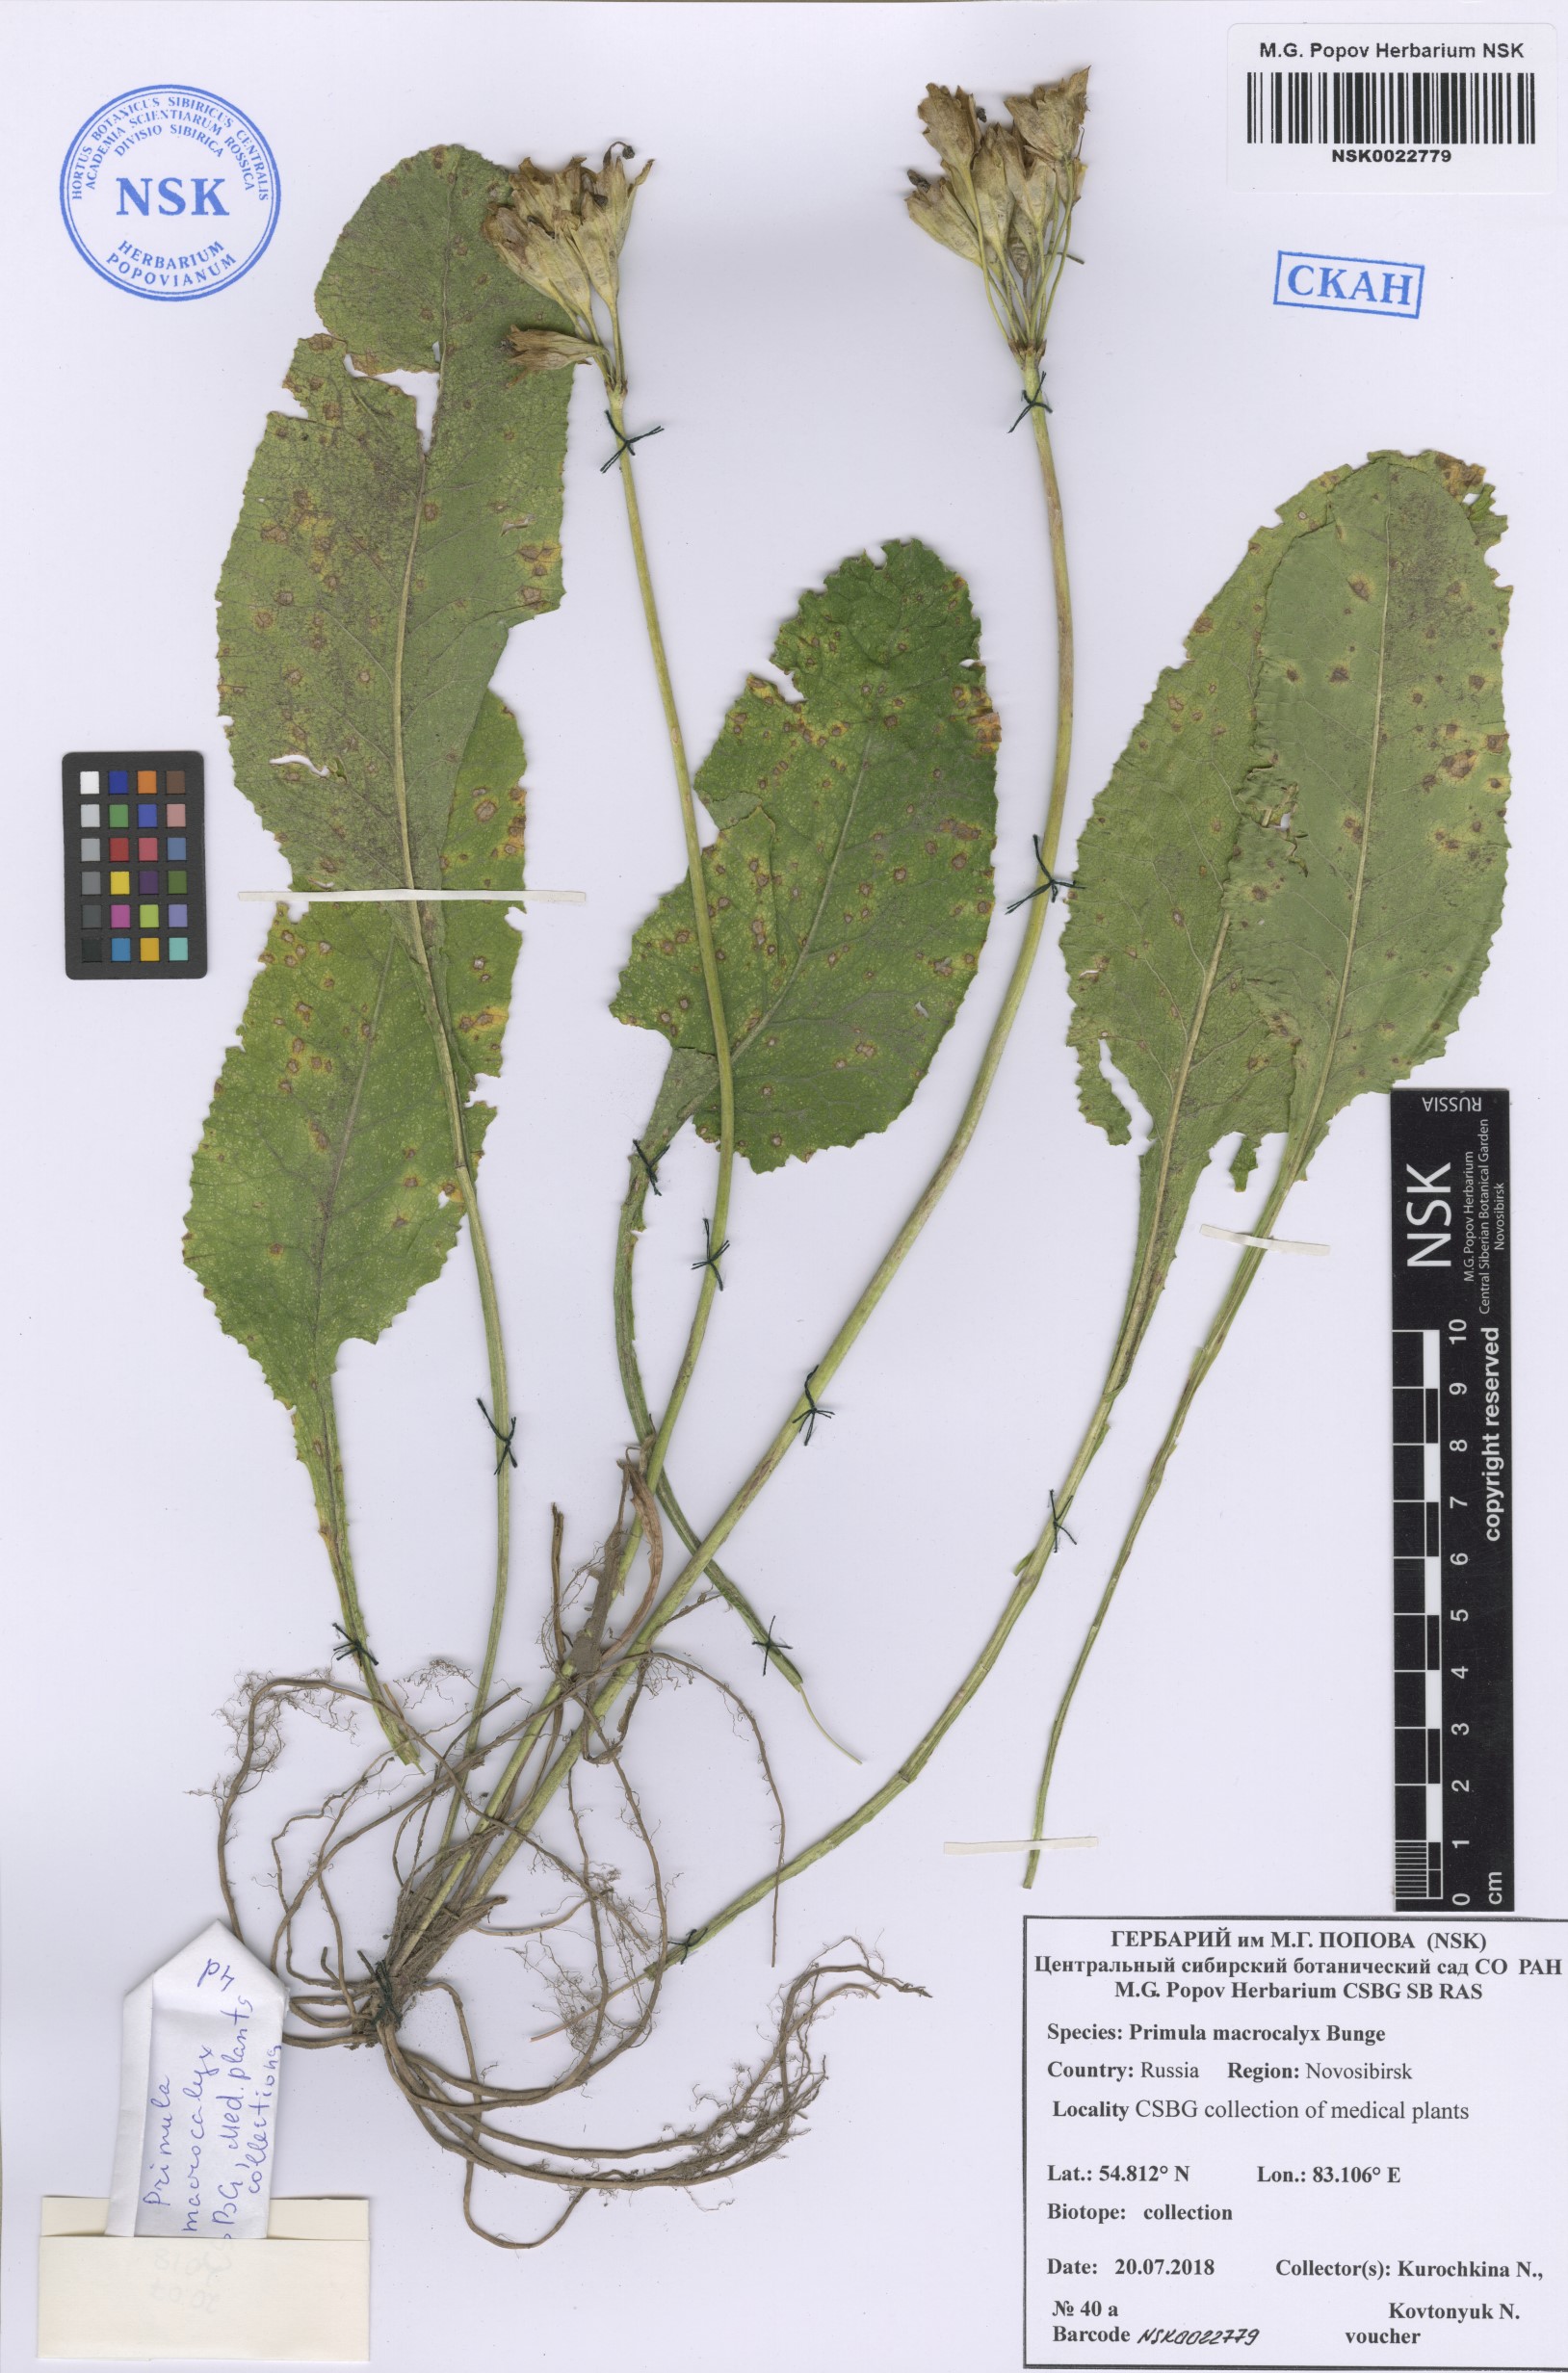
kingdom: Plantae
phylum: Tracheophyta
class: Magnoliopsida
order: Ericales
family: Primulaceae
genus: Primula
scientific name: Primula veris
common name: Cowslip
